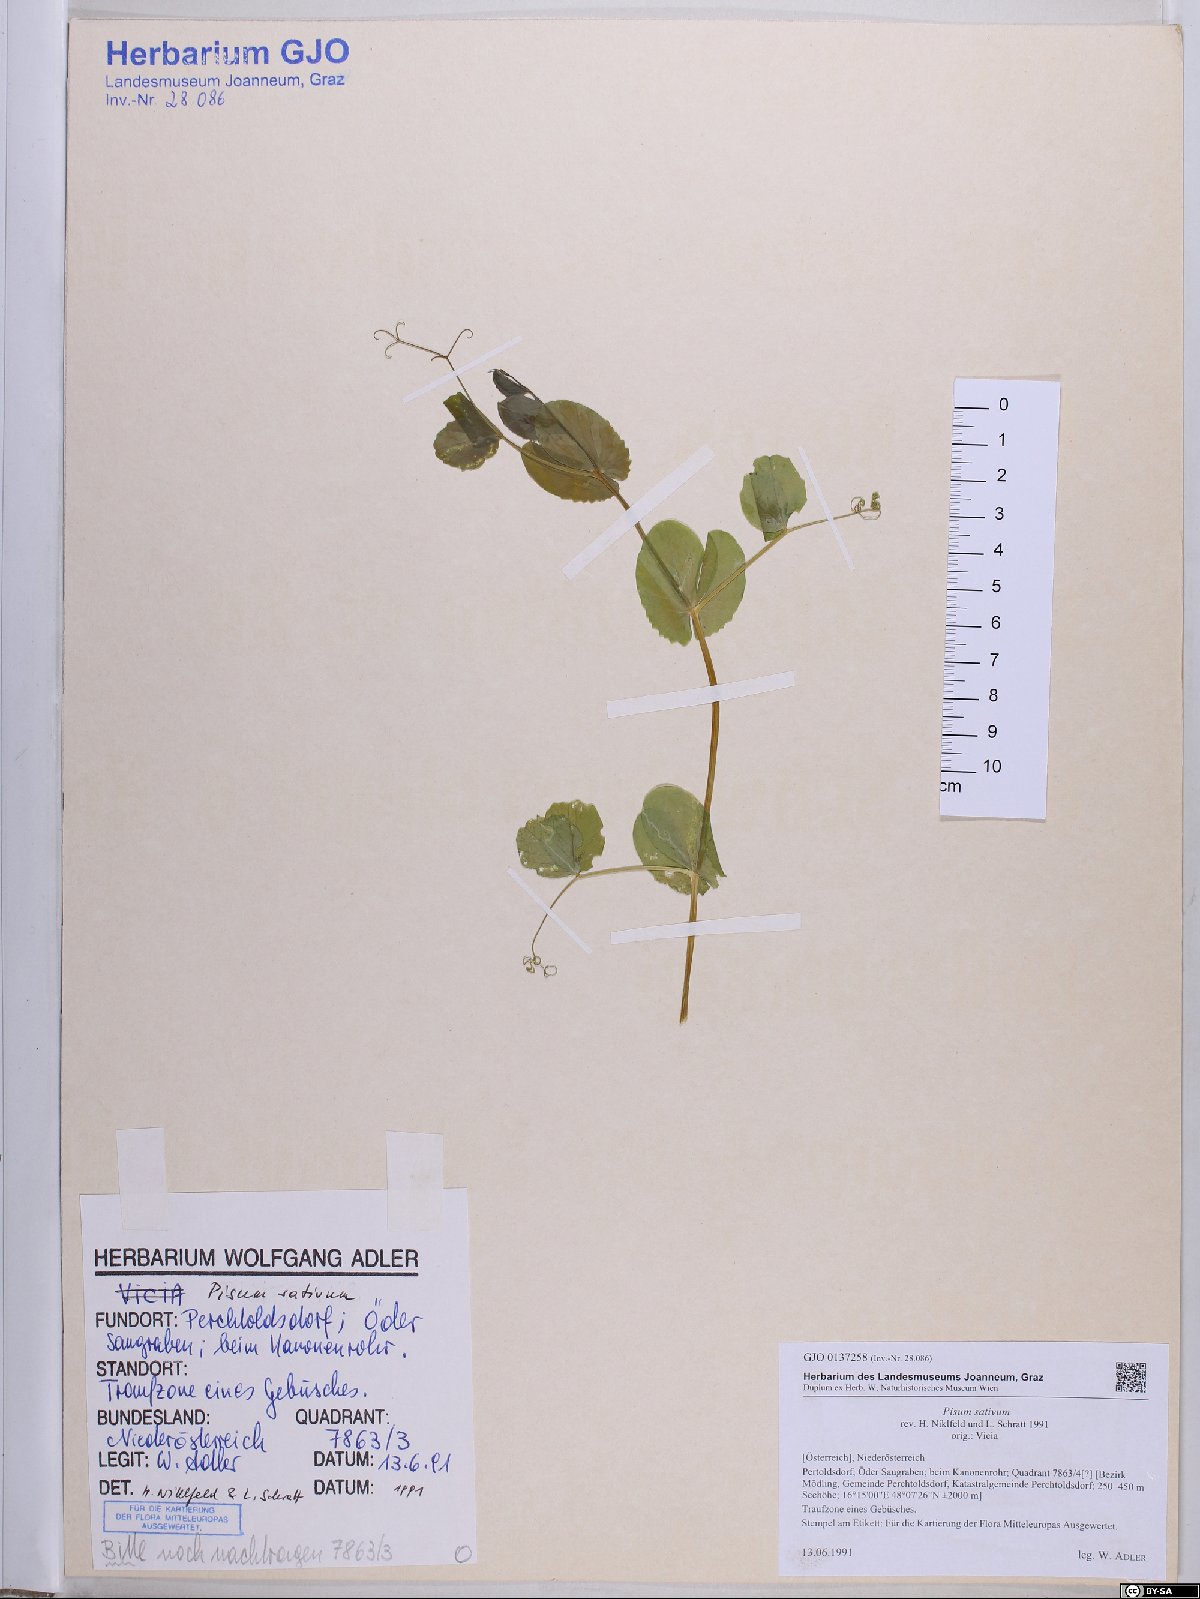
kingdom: Plantae
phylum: Tracheophyta
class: Magnoliopsida
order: Fabales
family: Fabaceae
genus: Lathyrus
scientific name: Lathyrus oleraceus
